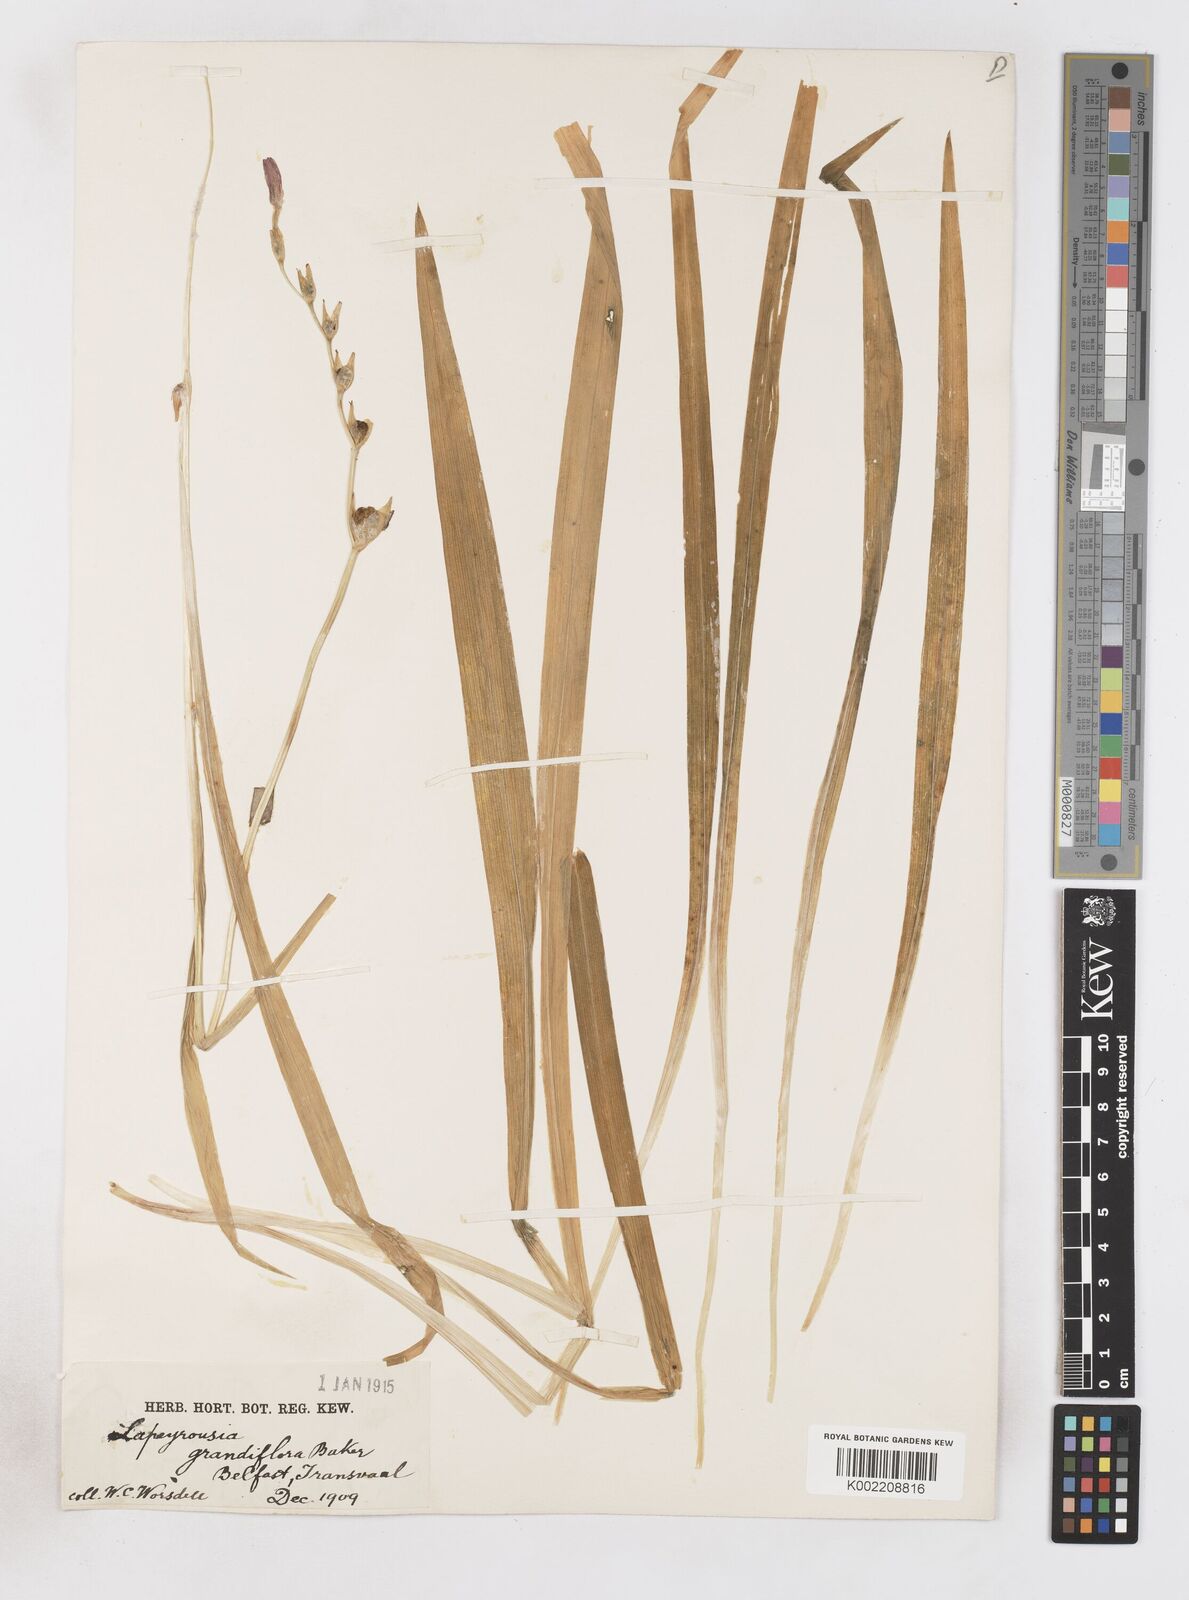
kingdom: Plantae
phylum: Tracheophyta
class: Liliopsida
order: Asparagales
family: Iridaceae
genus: Freesia
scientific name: Freesia grandiflora
